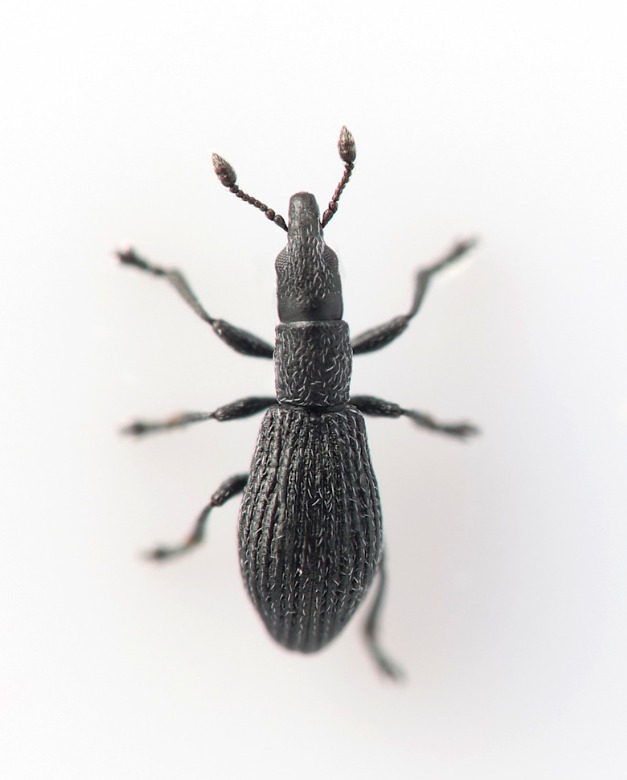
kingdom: Animalia
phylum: Arthropoda
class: Insecta
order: Coleoptera
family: Apionidae
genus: Pseudostenapion
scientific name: Pseudostenapion simum
